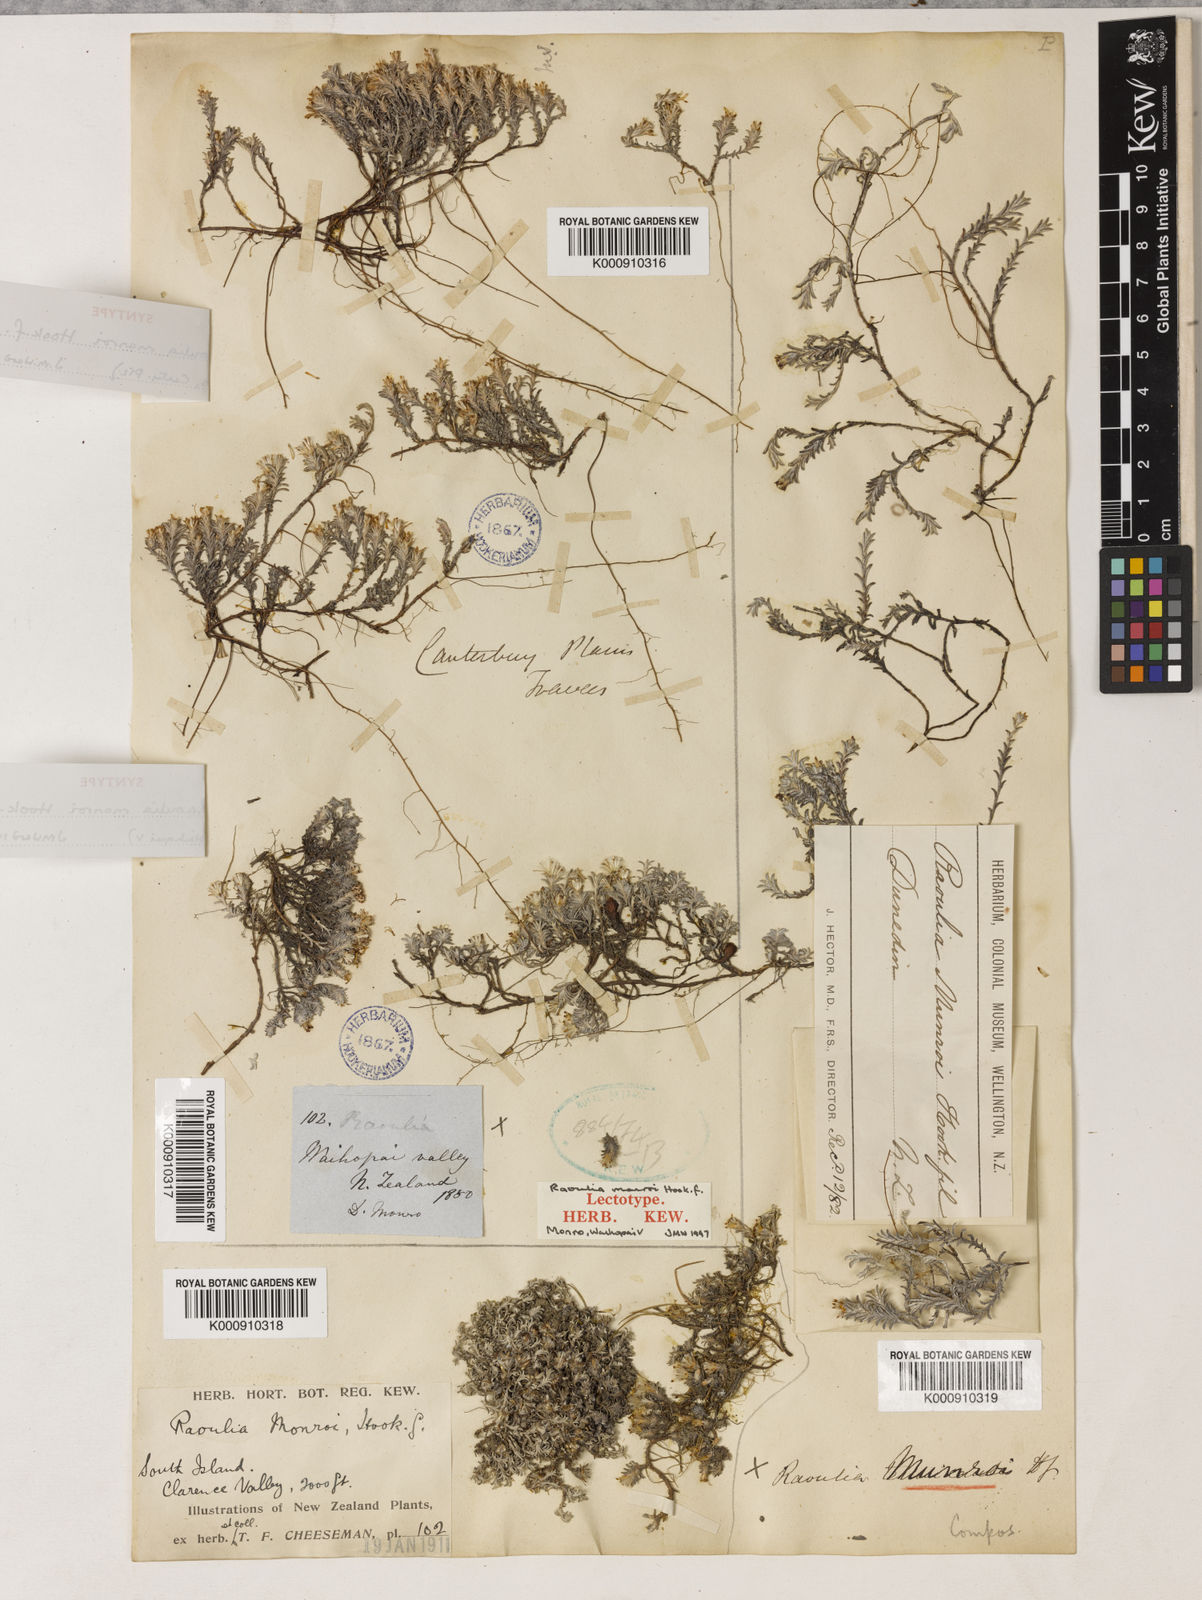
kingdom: Plantae
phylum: Tracheophyta
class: Magnoliopsida
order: Asterales
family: Asteraceae
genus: Raoulia
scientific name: Raoulia monroi
